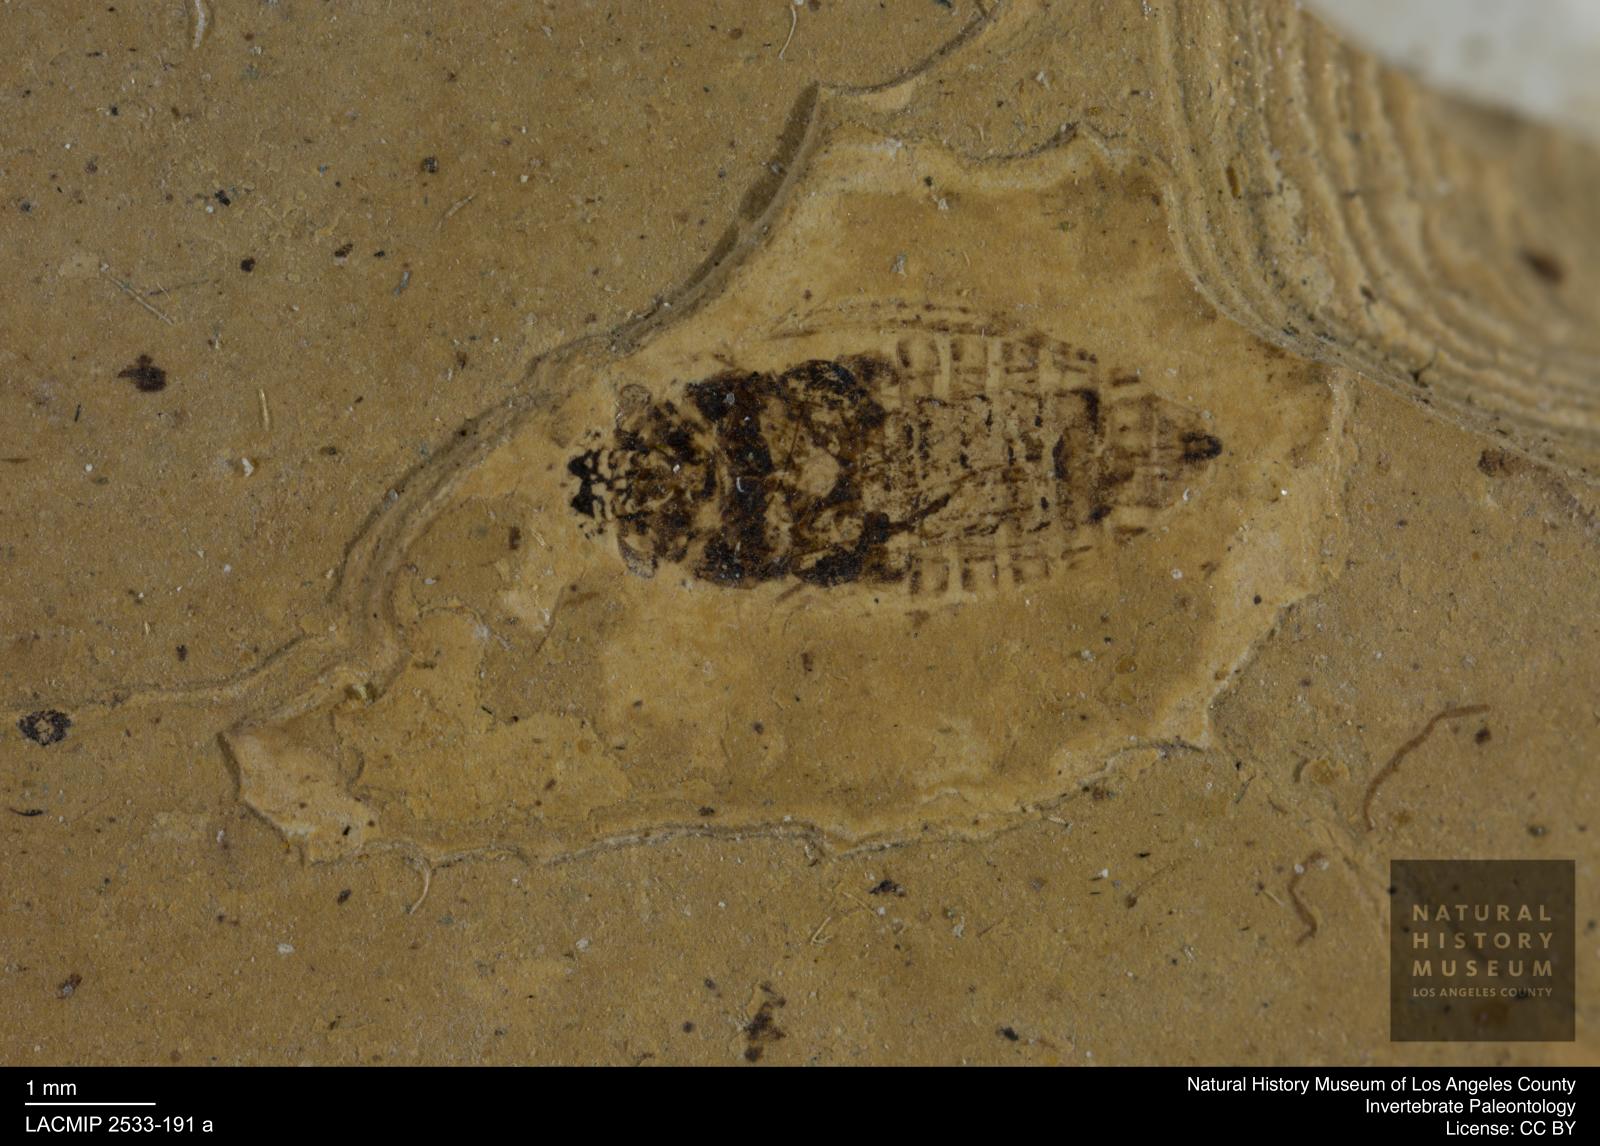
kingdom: Animalia
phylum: Arthropoda
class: Insecta
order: Hemiptera
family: Cicadellidae
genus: Thamnotettix
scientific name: Thamnotettix clypealis
